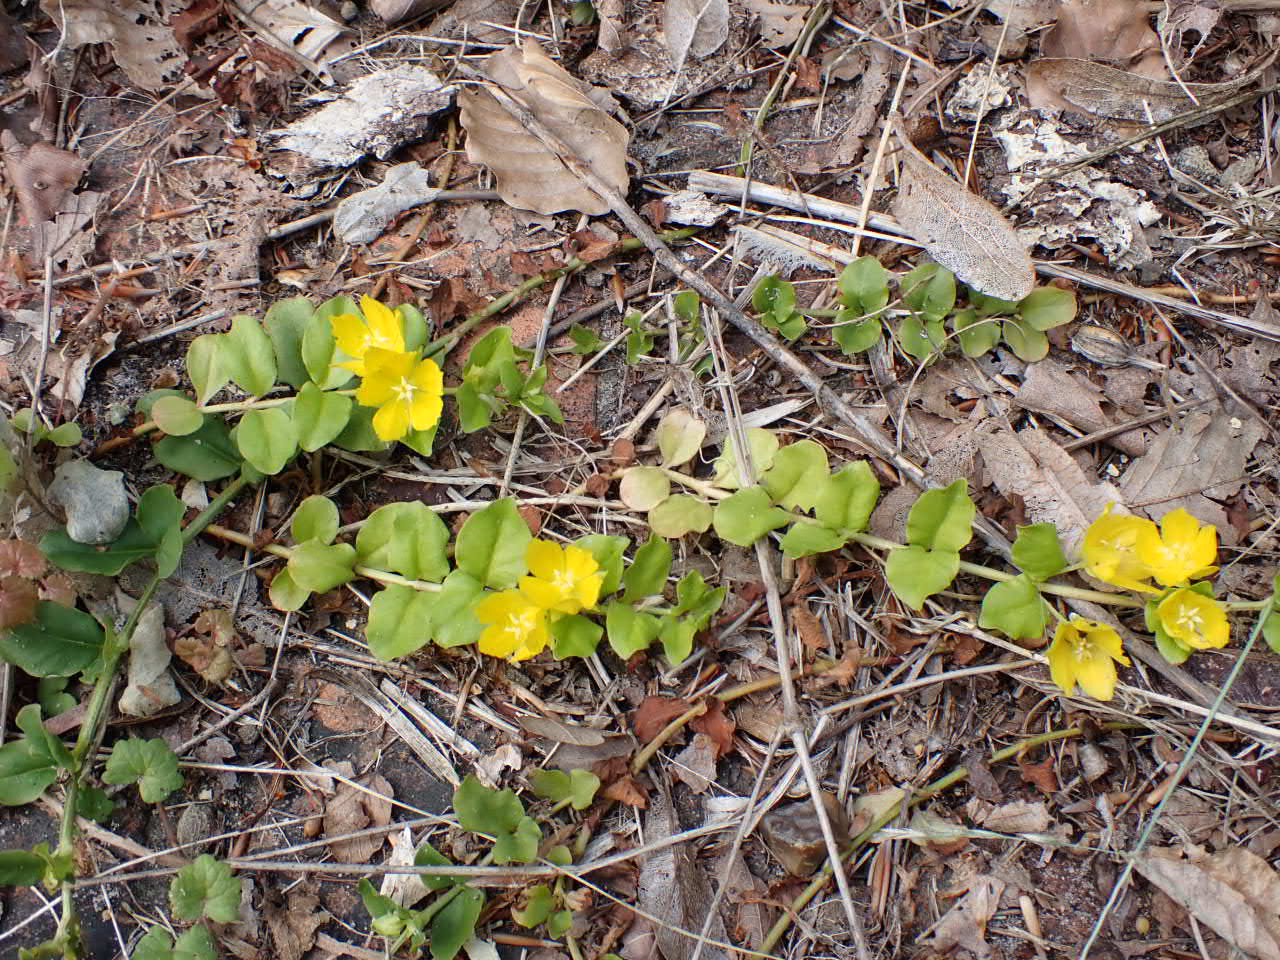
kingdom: Plantae
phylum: Tracheophyta
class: Magnoliopsida
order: Ericales
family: Primulaceae
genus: Lysimachia
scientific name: Lysimachia nummularia
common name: Pengebladet fredløs
